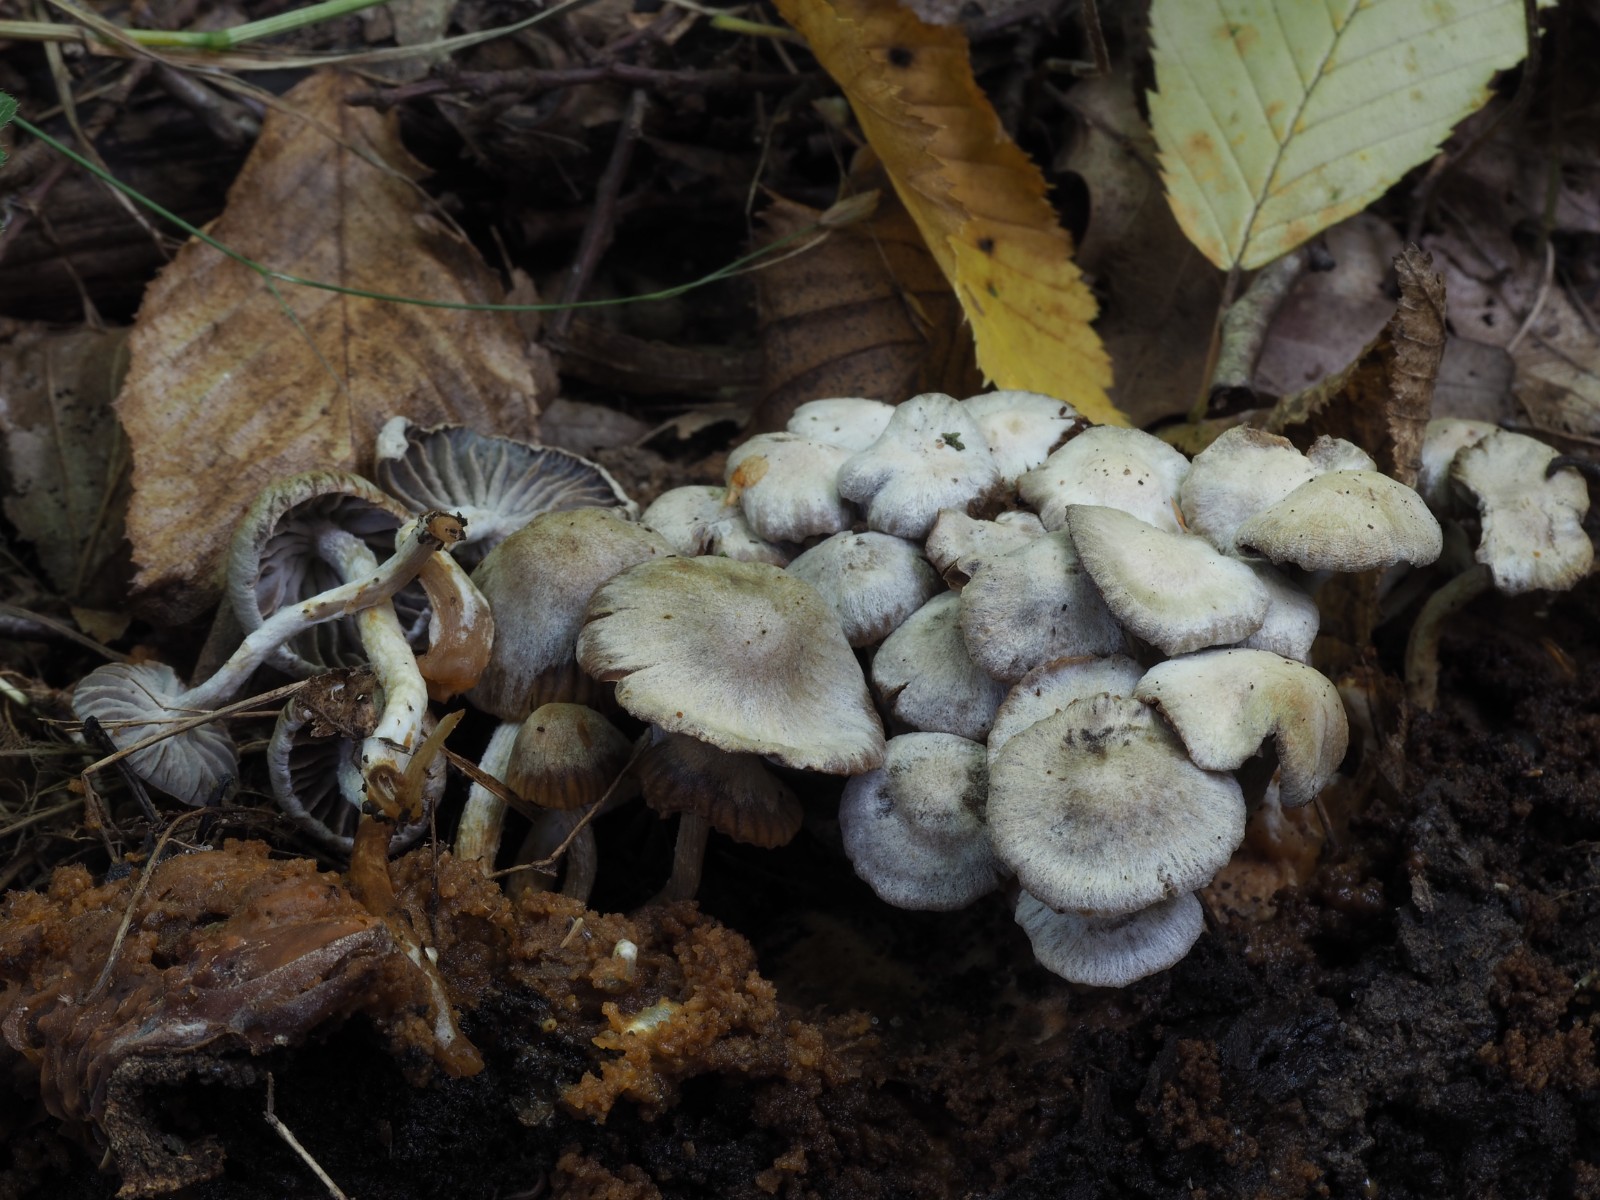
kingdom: Fungi
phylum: Basidiomycota
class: Agaricomycetes
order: Agaricales
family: Lyophyllaceae
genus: Asterophora
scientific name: Asterophora parasitica
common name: grå snyltehat
